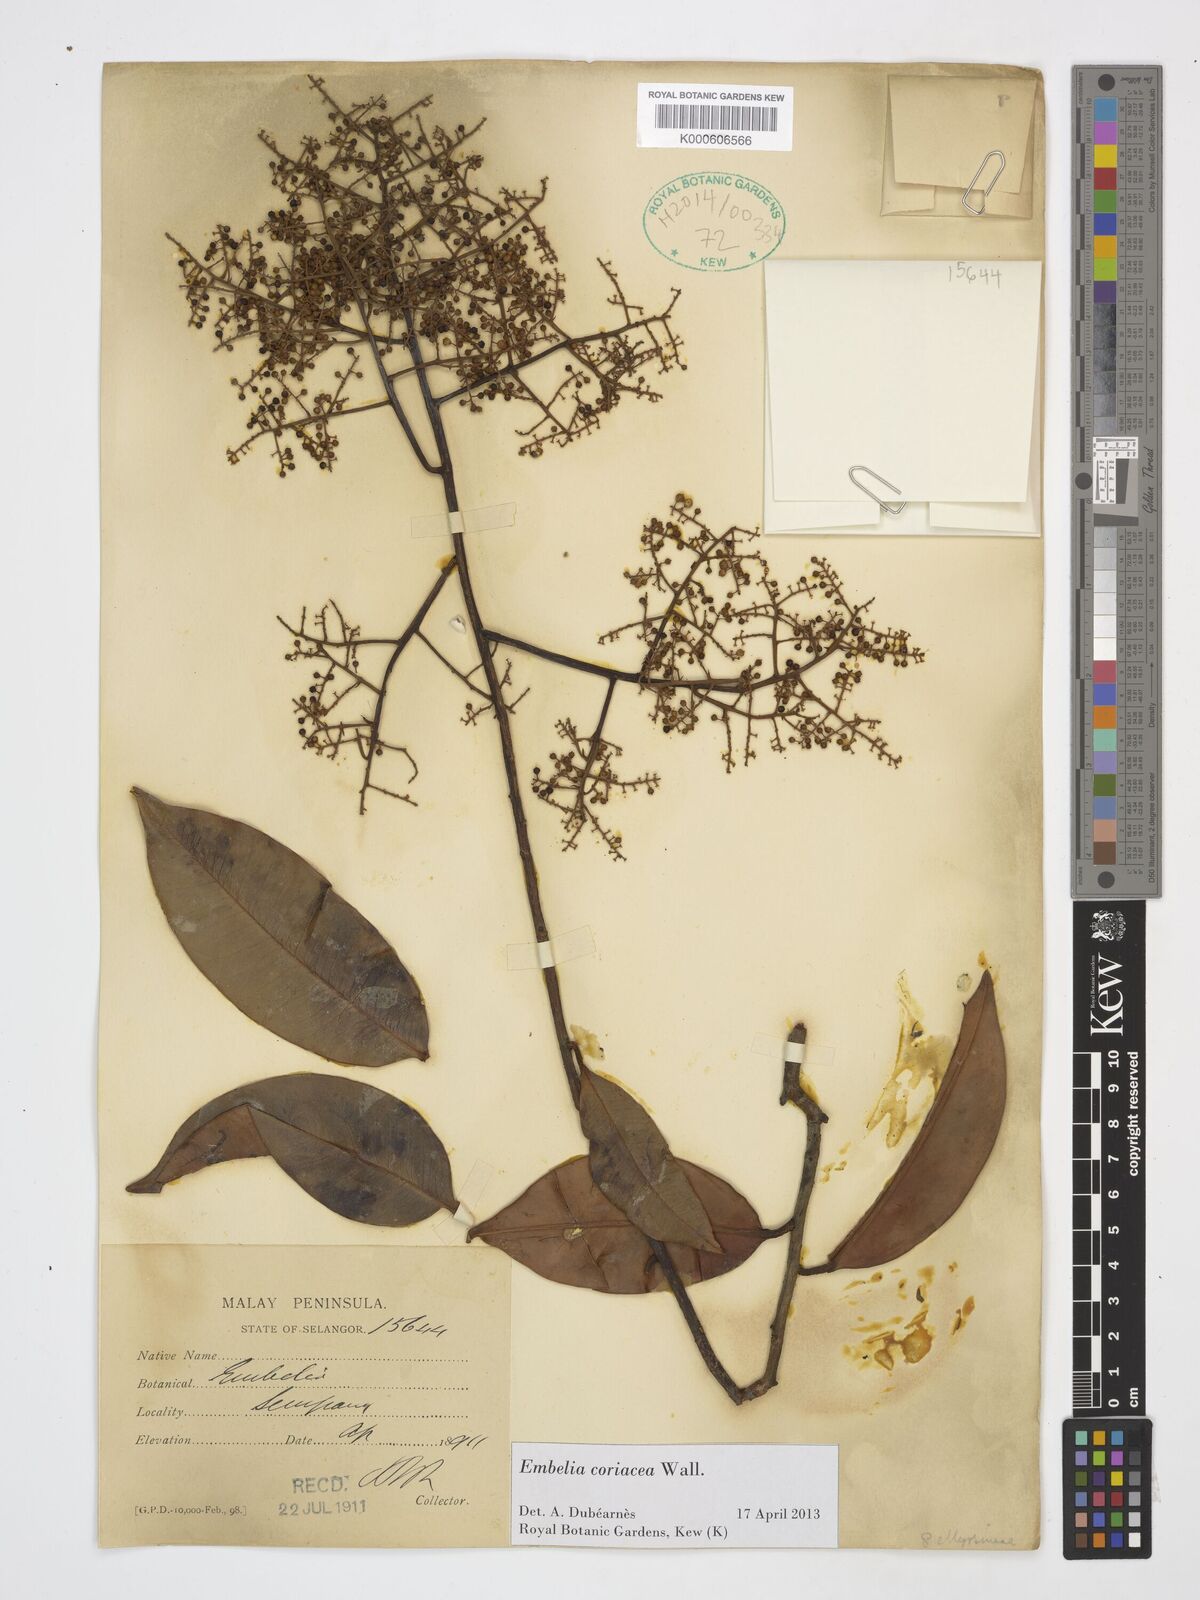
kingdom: Plantae
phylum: Tracheophyta
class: Magnoliopsida
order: Ericales
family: Primulaceae
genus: Embelia
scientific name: Embelia coriacea
